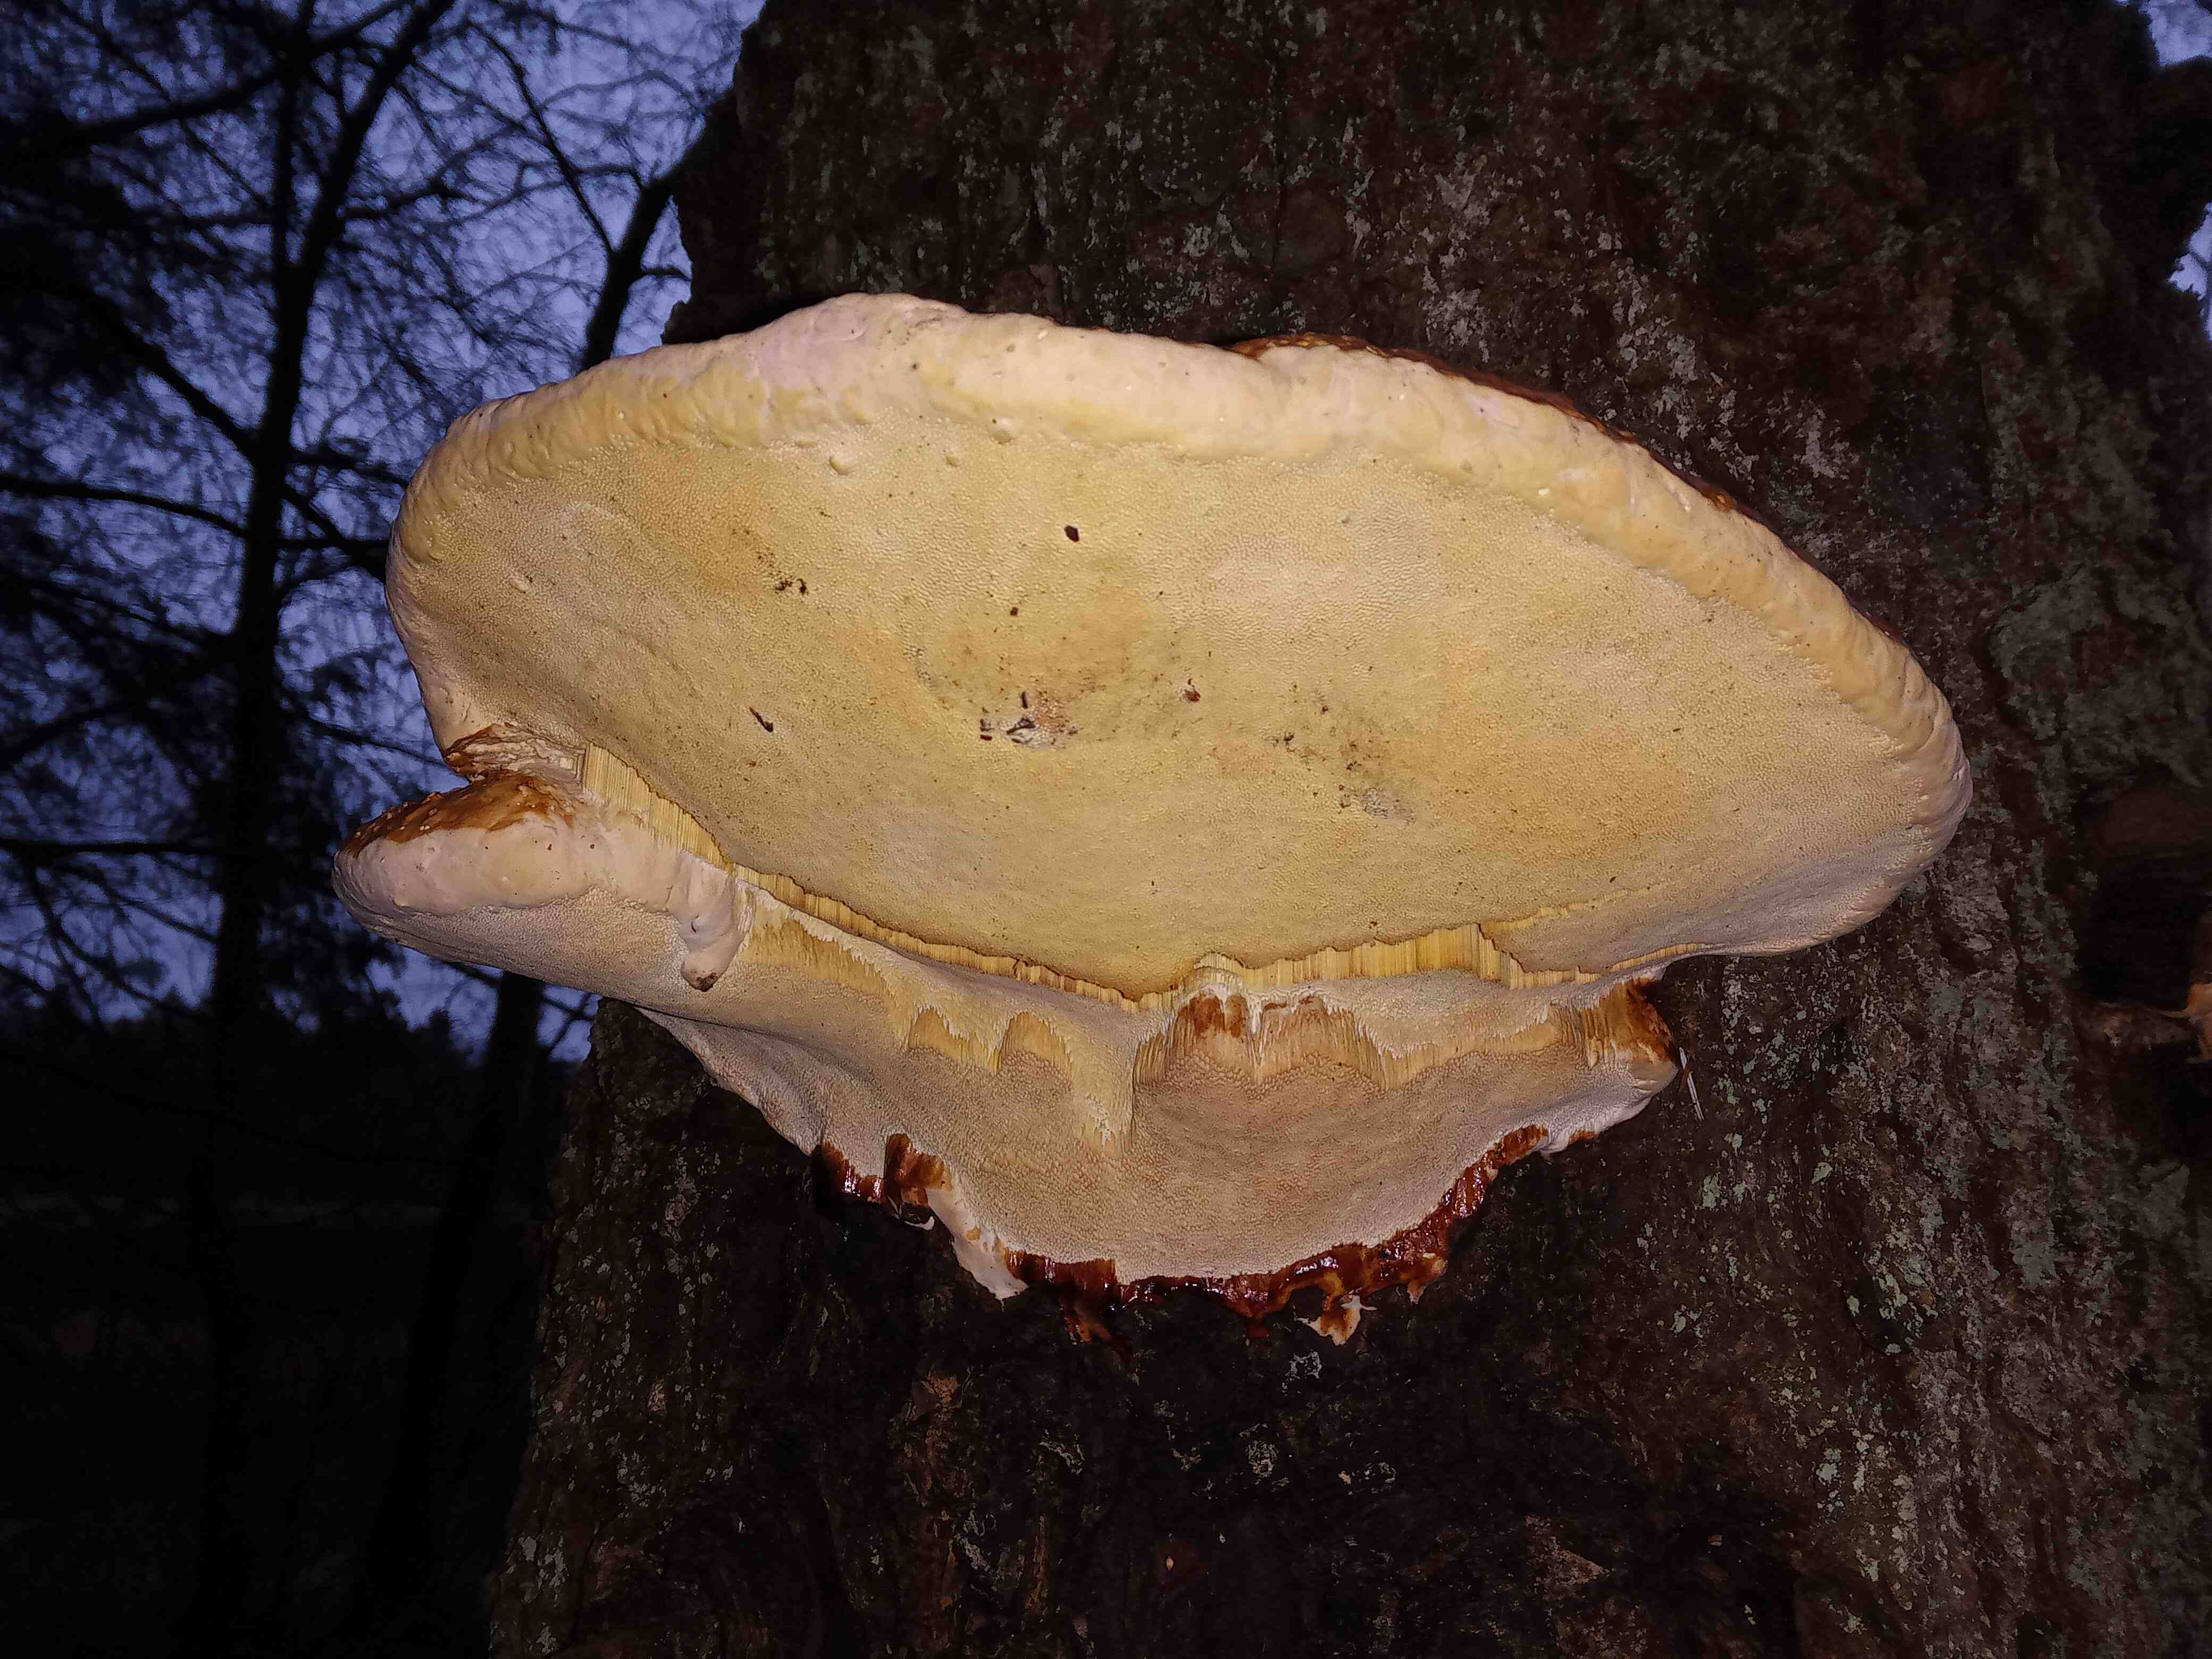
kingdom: Fungi
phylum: Basidiomycota
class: Agaricomycetes
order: Polyporales
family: Fomitopsidaceae
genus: Fomitopsis
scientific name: Fomitopsis pinicola
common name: randbæltet hovporesvamp
